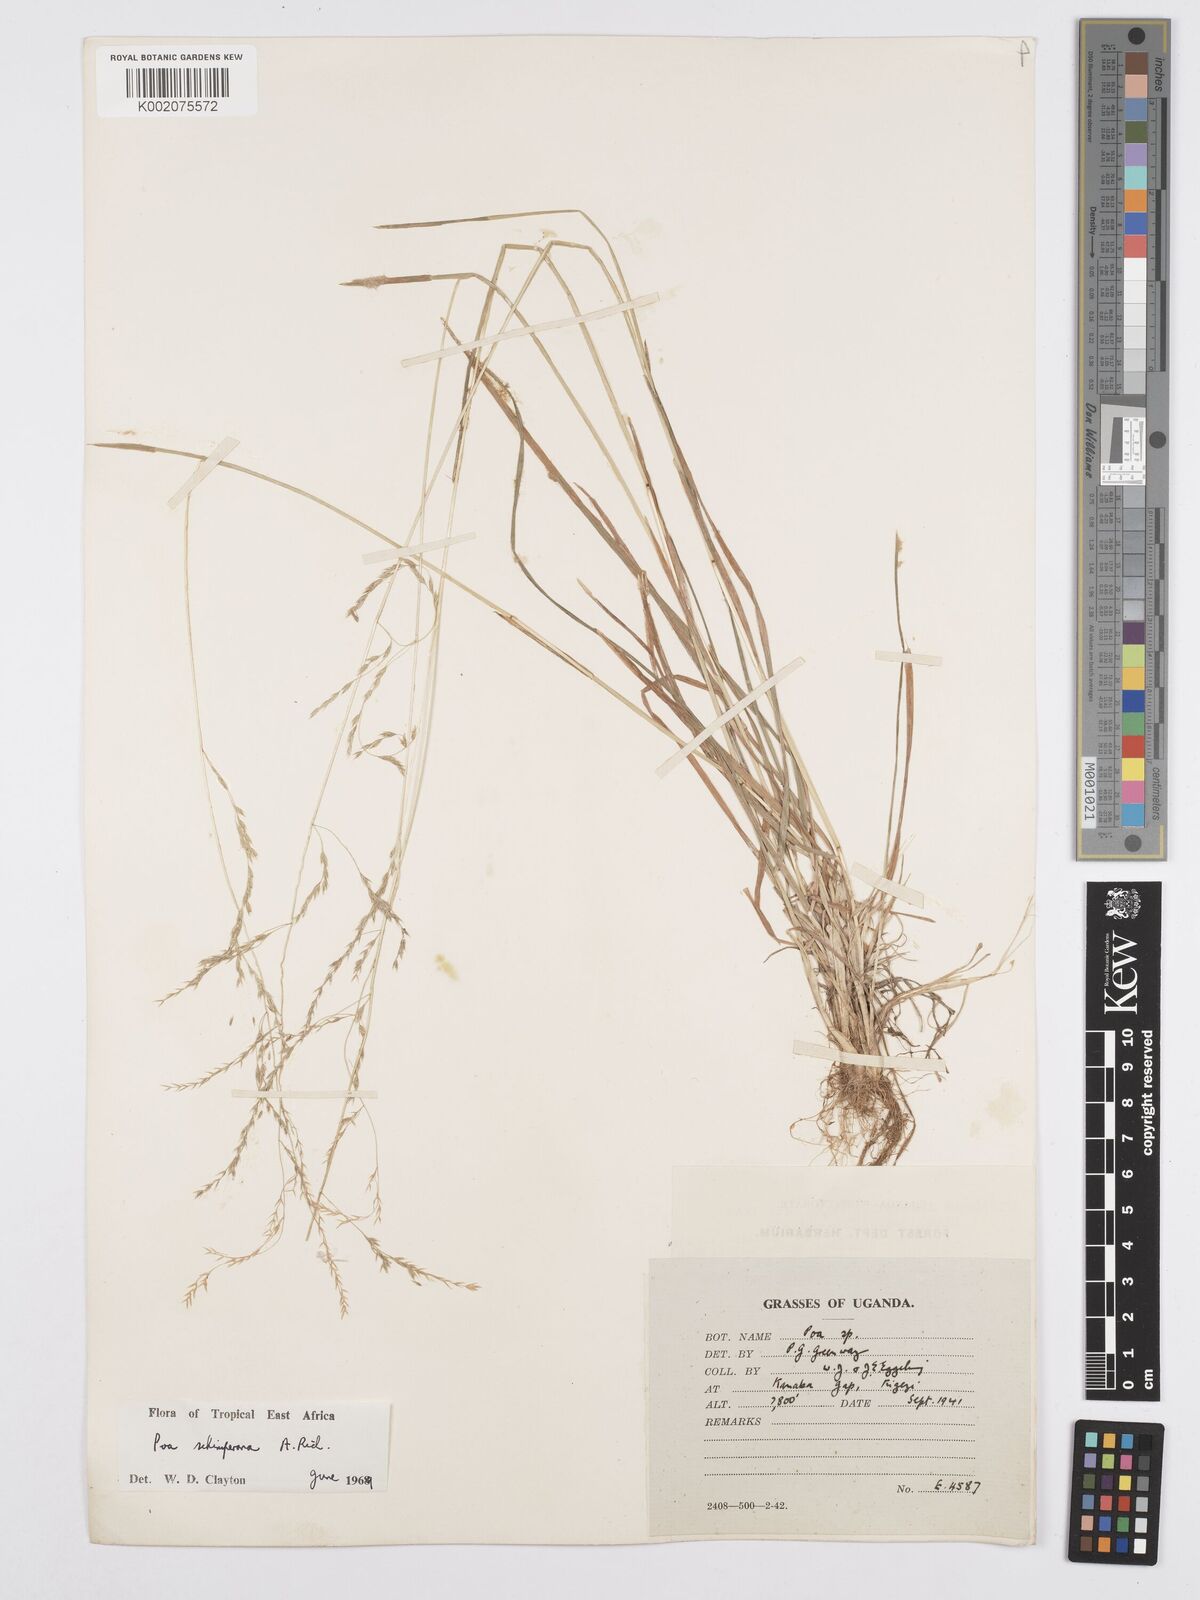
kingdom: Plantae
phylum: Tracheophyta
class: Liliopsida
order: Poales
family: Poaceae
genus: Poa
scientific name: Poa schimperiana
